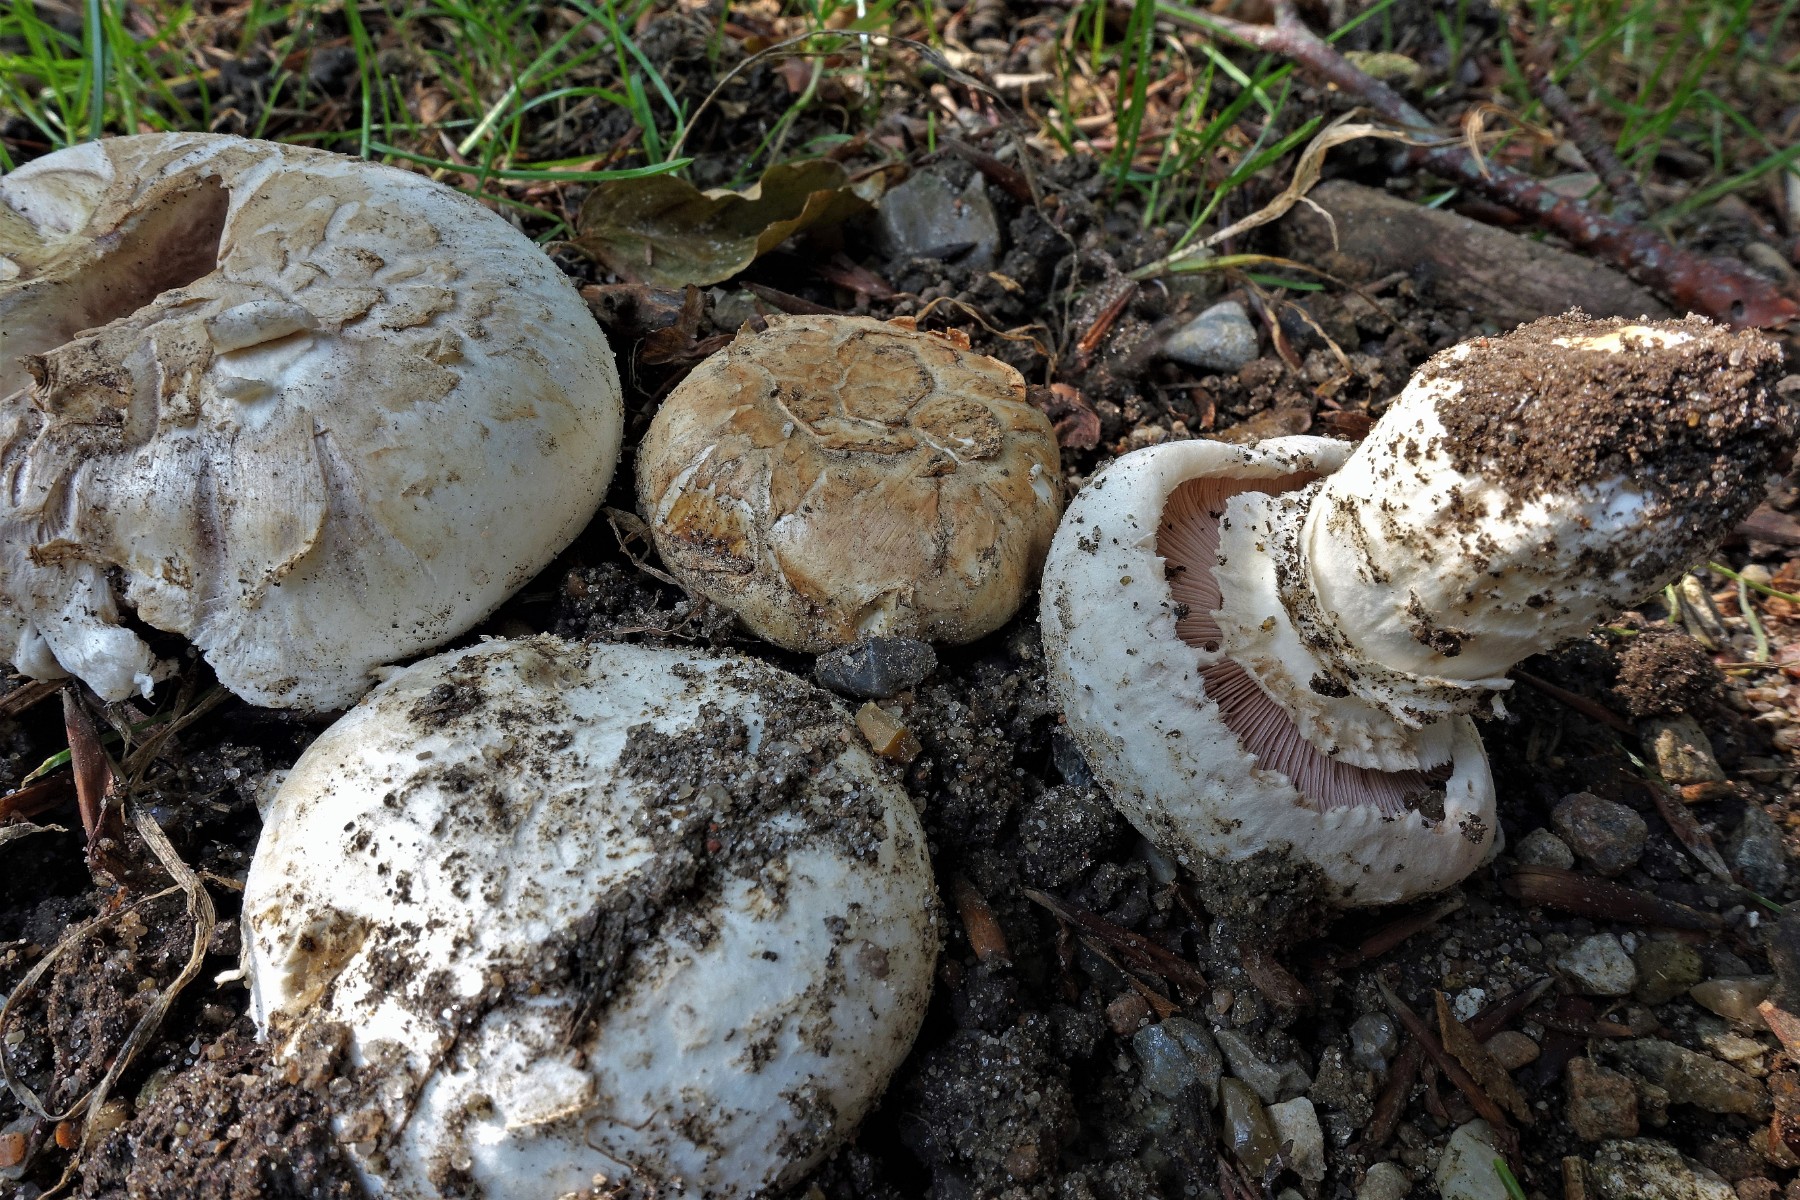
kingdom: Fungi
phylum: Basidiomycota
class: Agaricomycetes
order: Agaricales
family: Agaricaceae
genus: Agaricus
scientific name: Agaricus bitorquis
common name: vej-champignon
